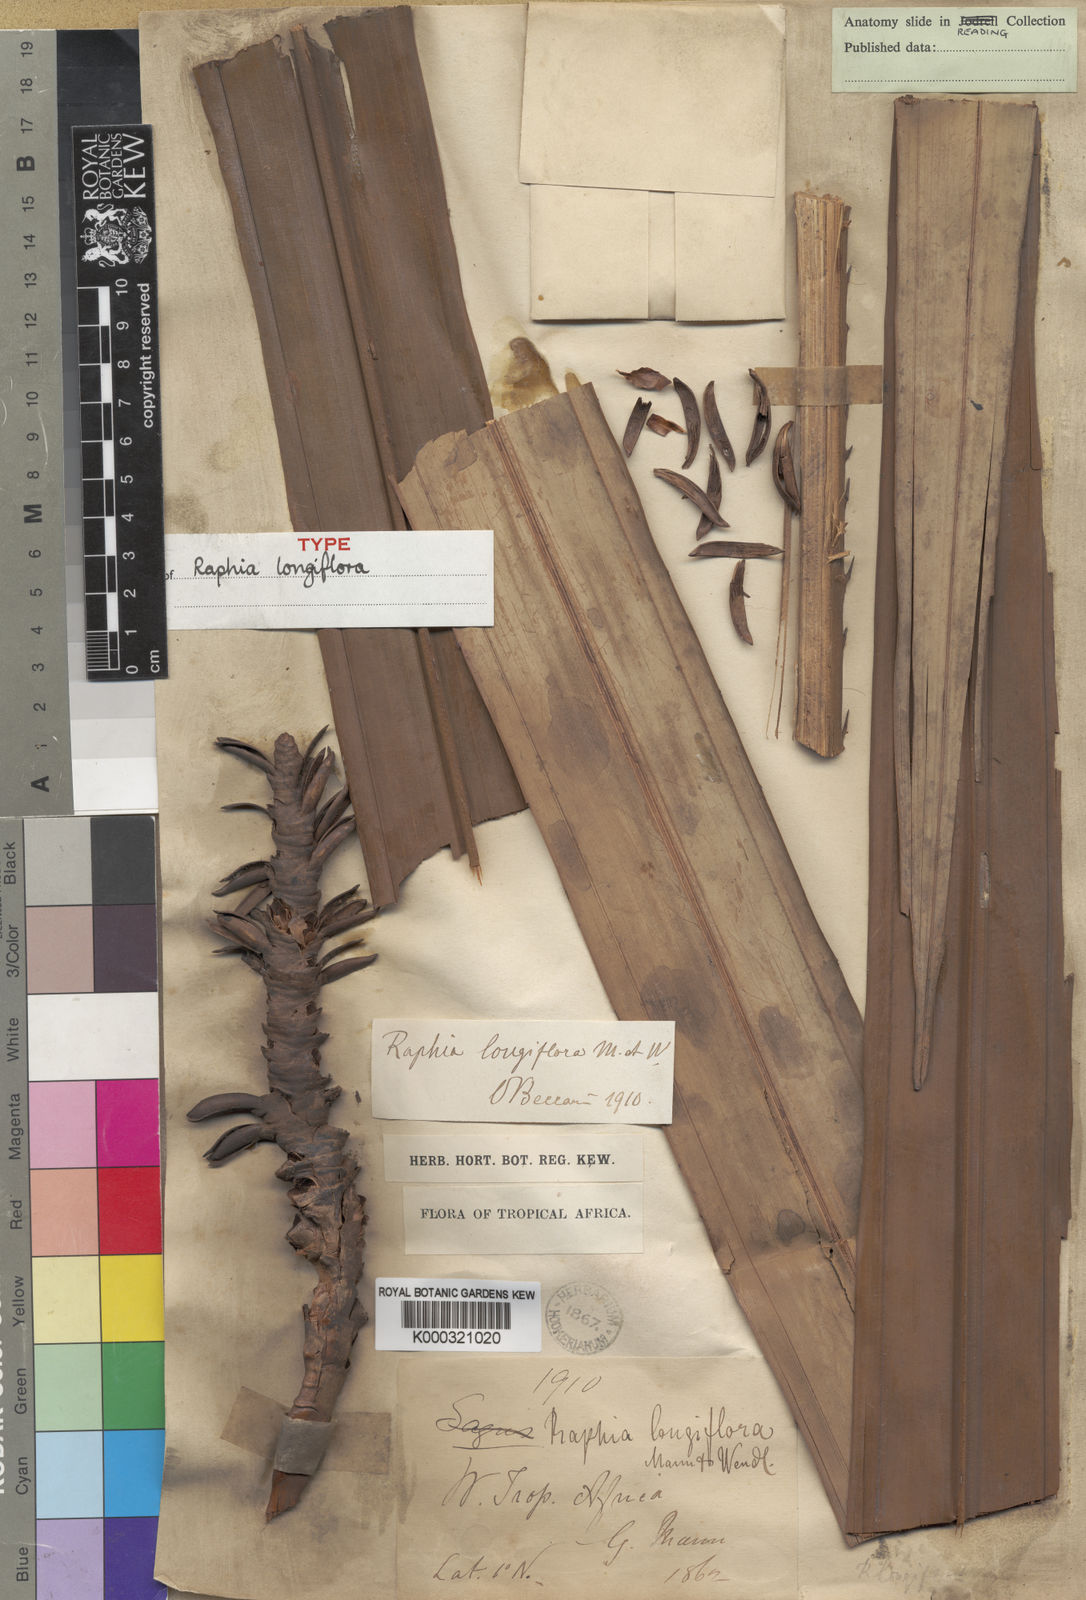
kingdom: Plantae
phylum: Tracheophyta
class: Liliopsida
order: Arecales
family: Arecaceae
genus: Raphia
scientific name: Raphia longiflora
